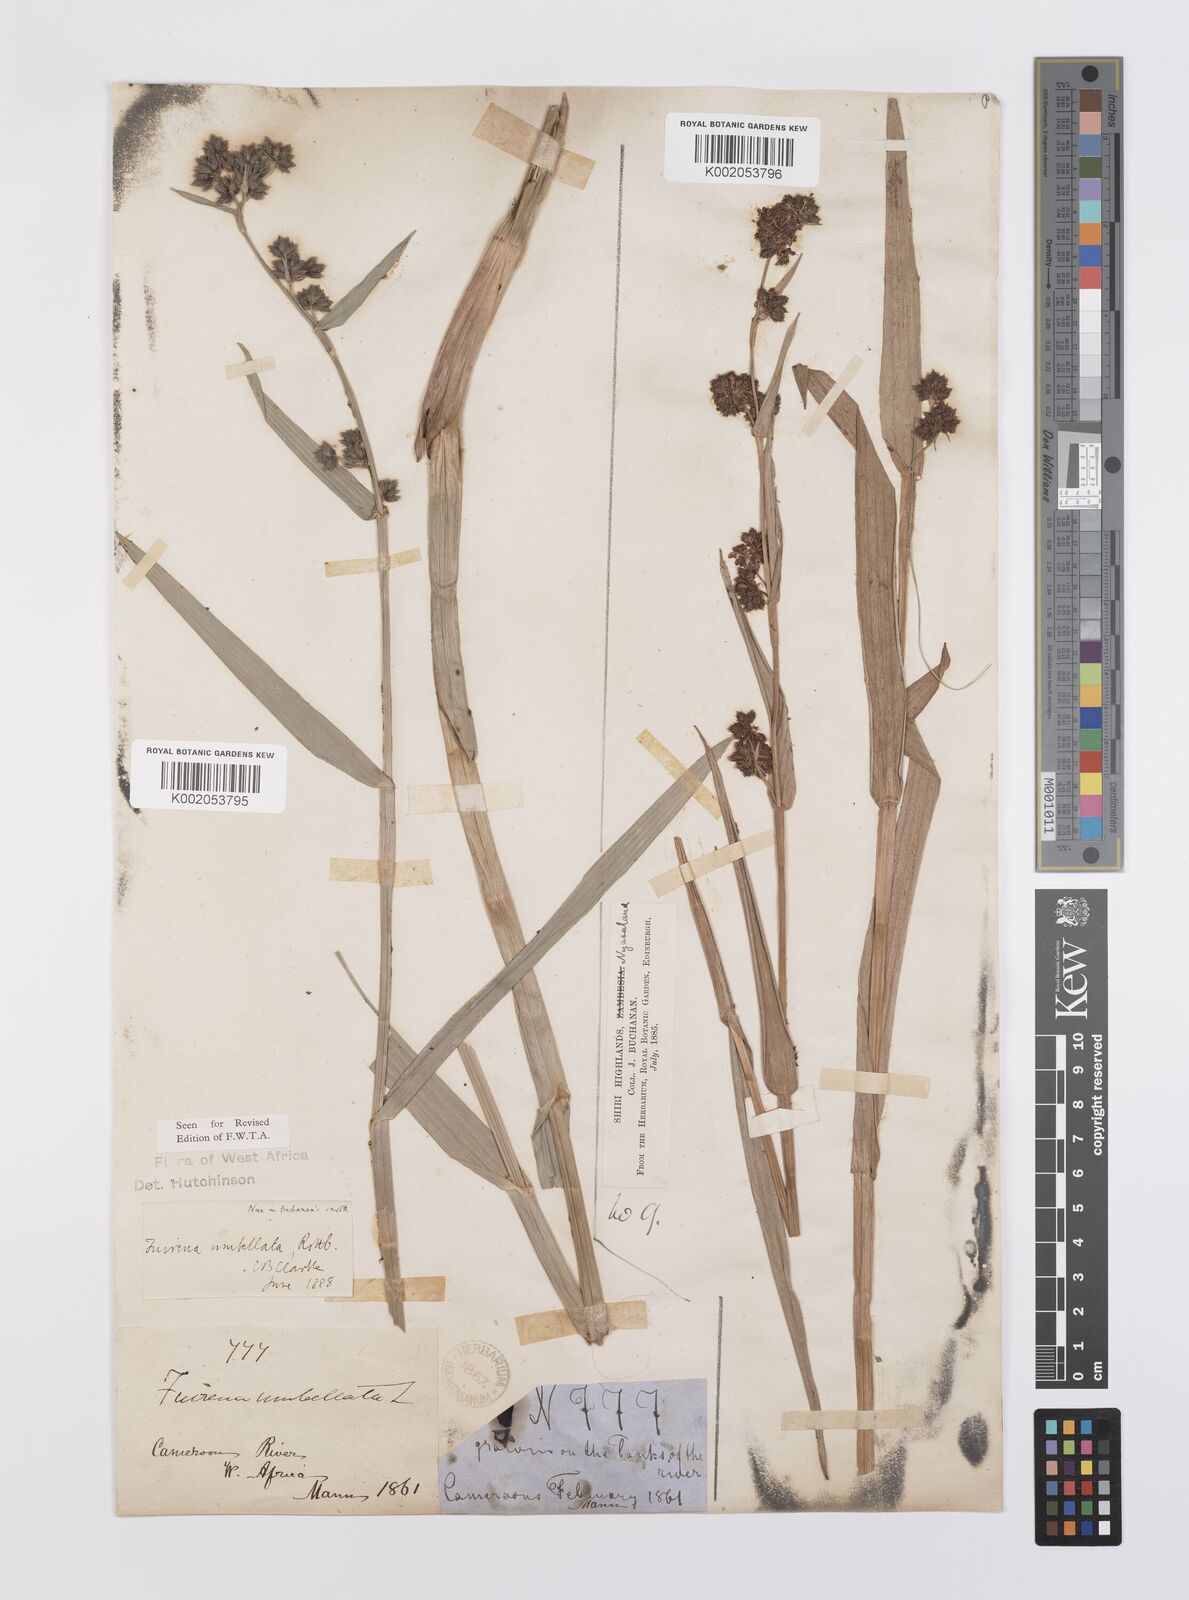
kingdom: Plantae
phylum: Tracheophyta
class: Liliopsida
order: Poales
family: Cyperaceae
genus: Fuirena
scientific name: Fuirena umbellata
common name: Yefen
